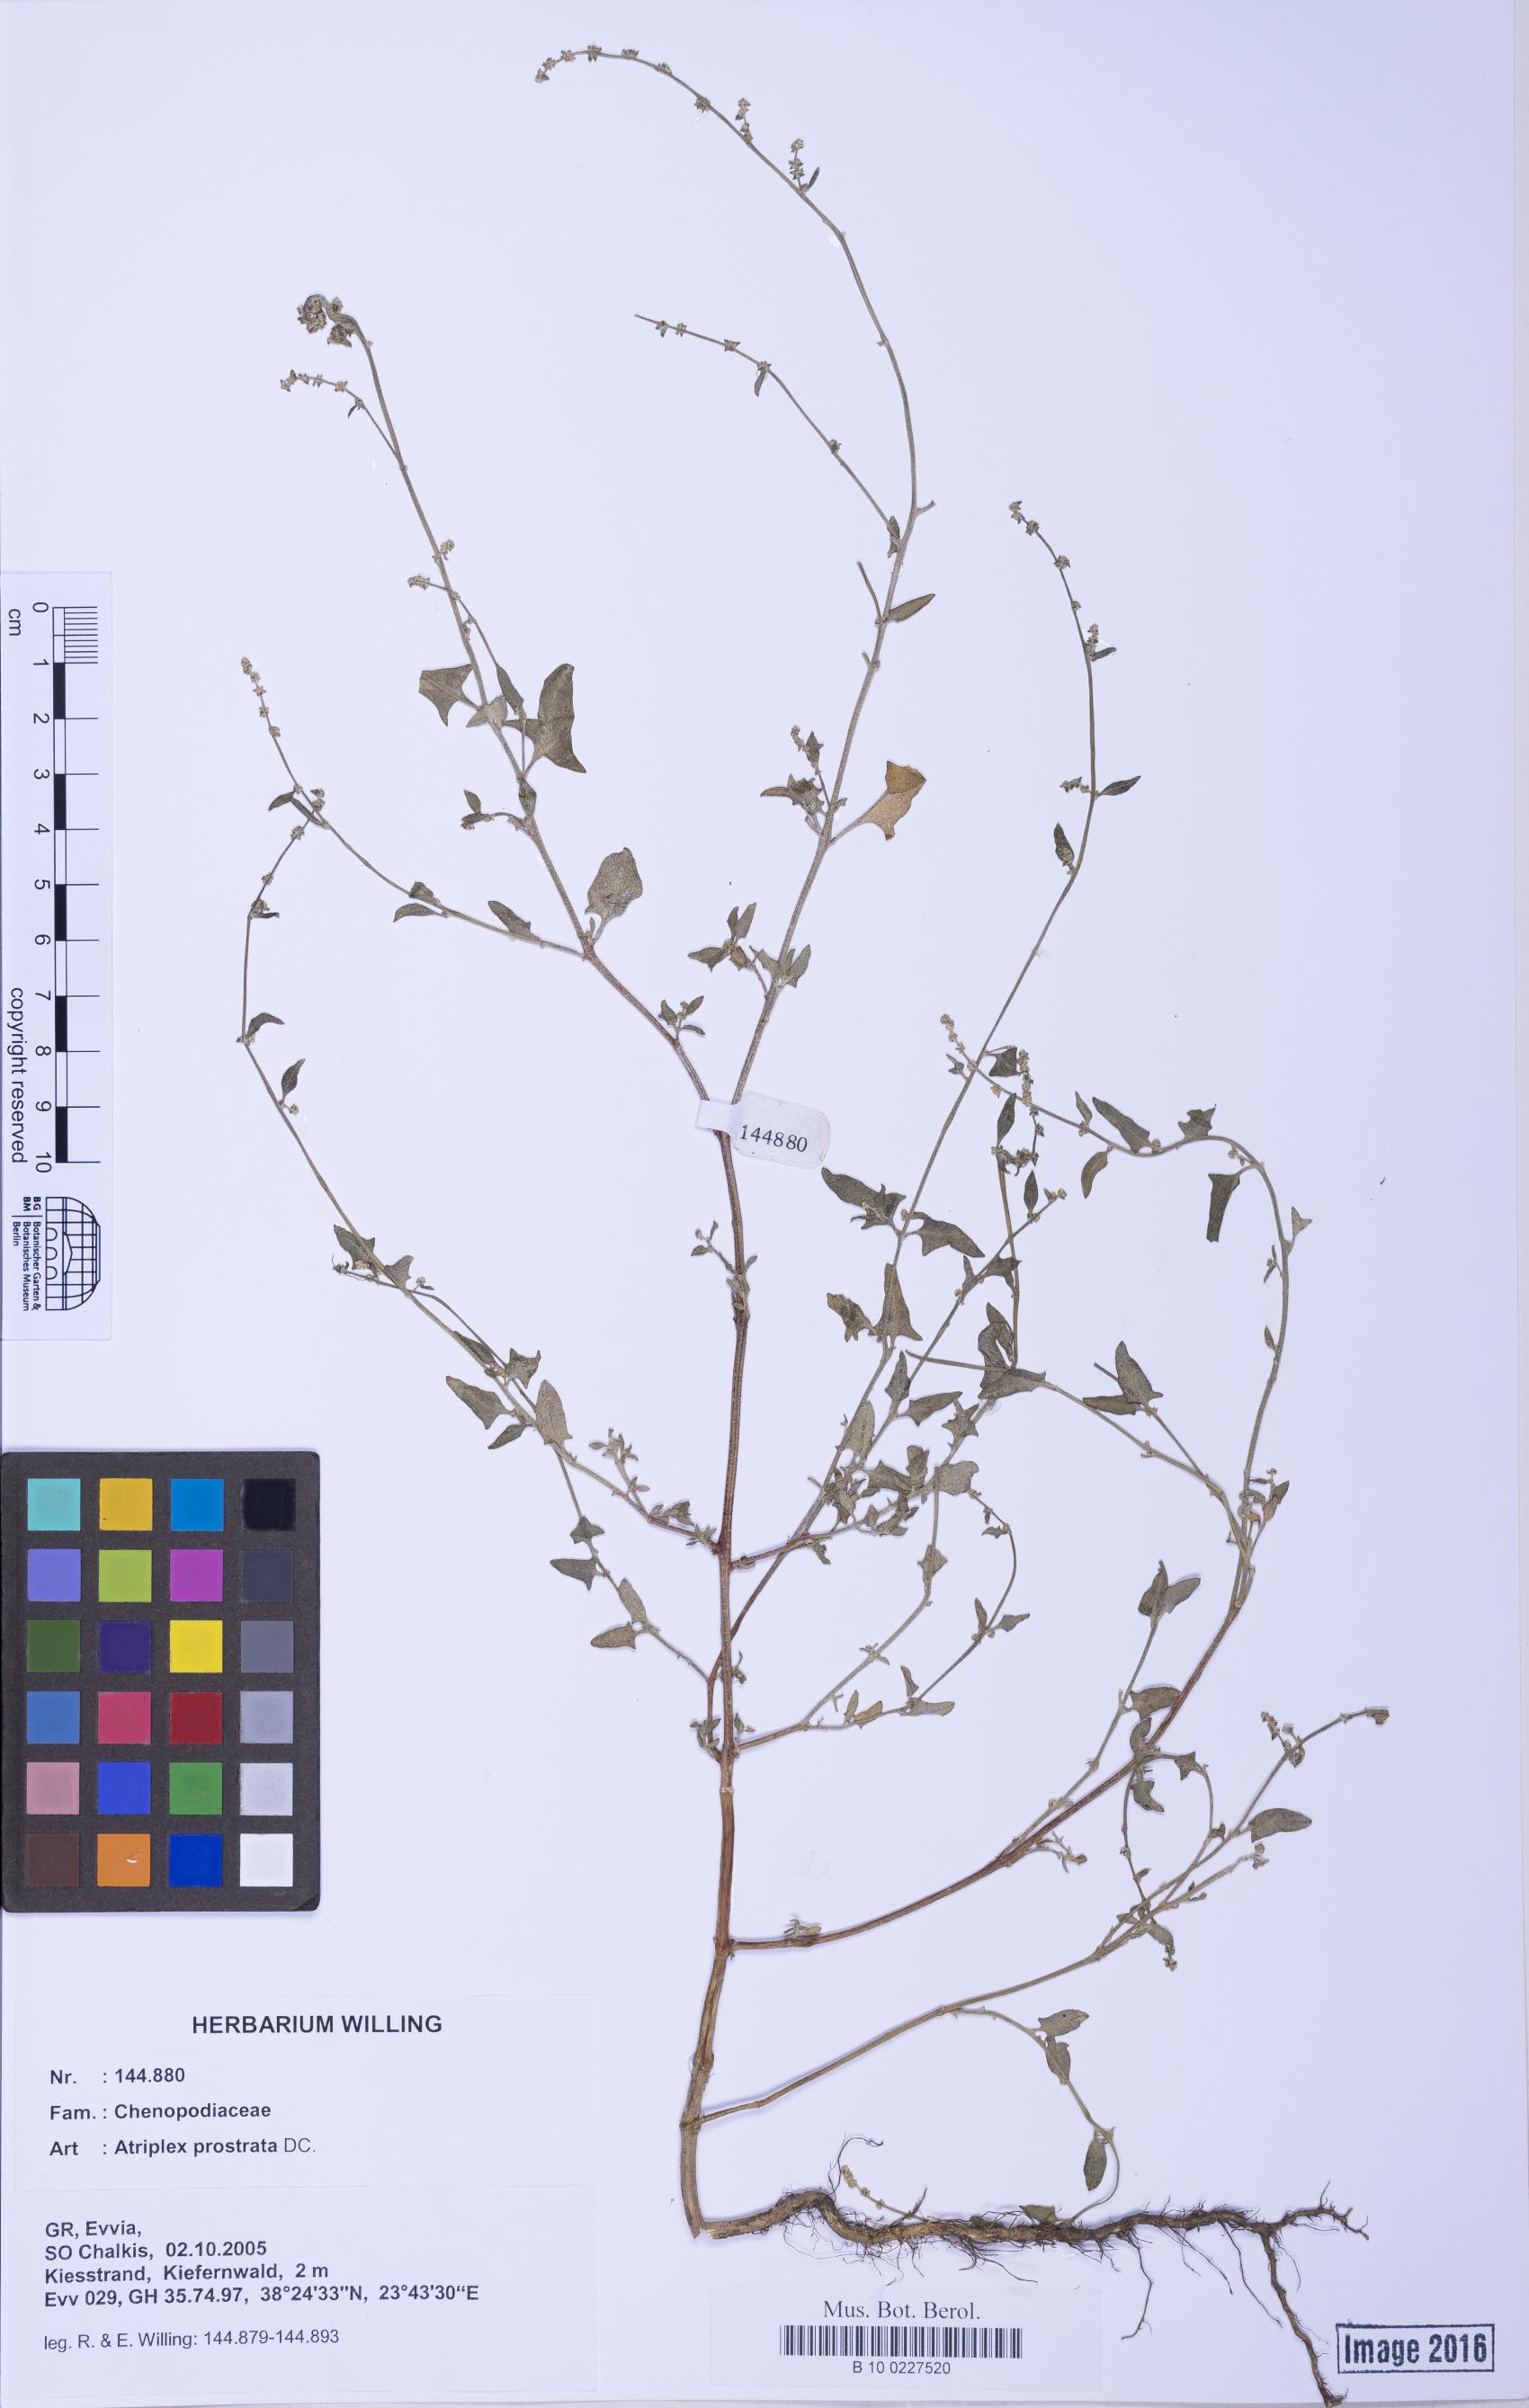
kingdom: Plantae
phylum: Tracheophyta
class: Magnoliopsida
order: Caryophyllales
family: Amaranthaceae
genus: Atriplex
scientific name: Atriplex prostrata
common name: Spear-leaved orache
